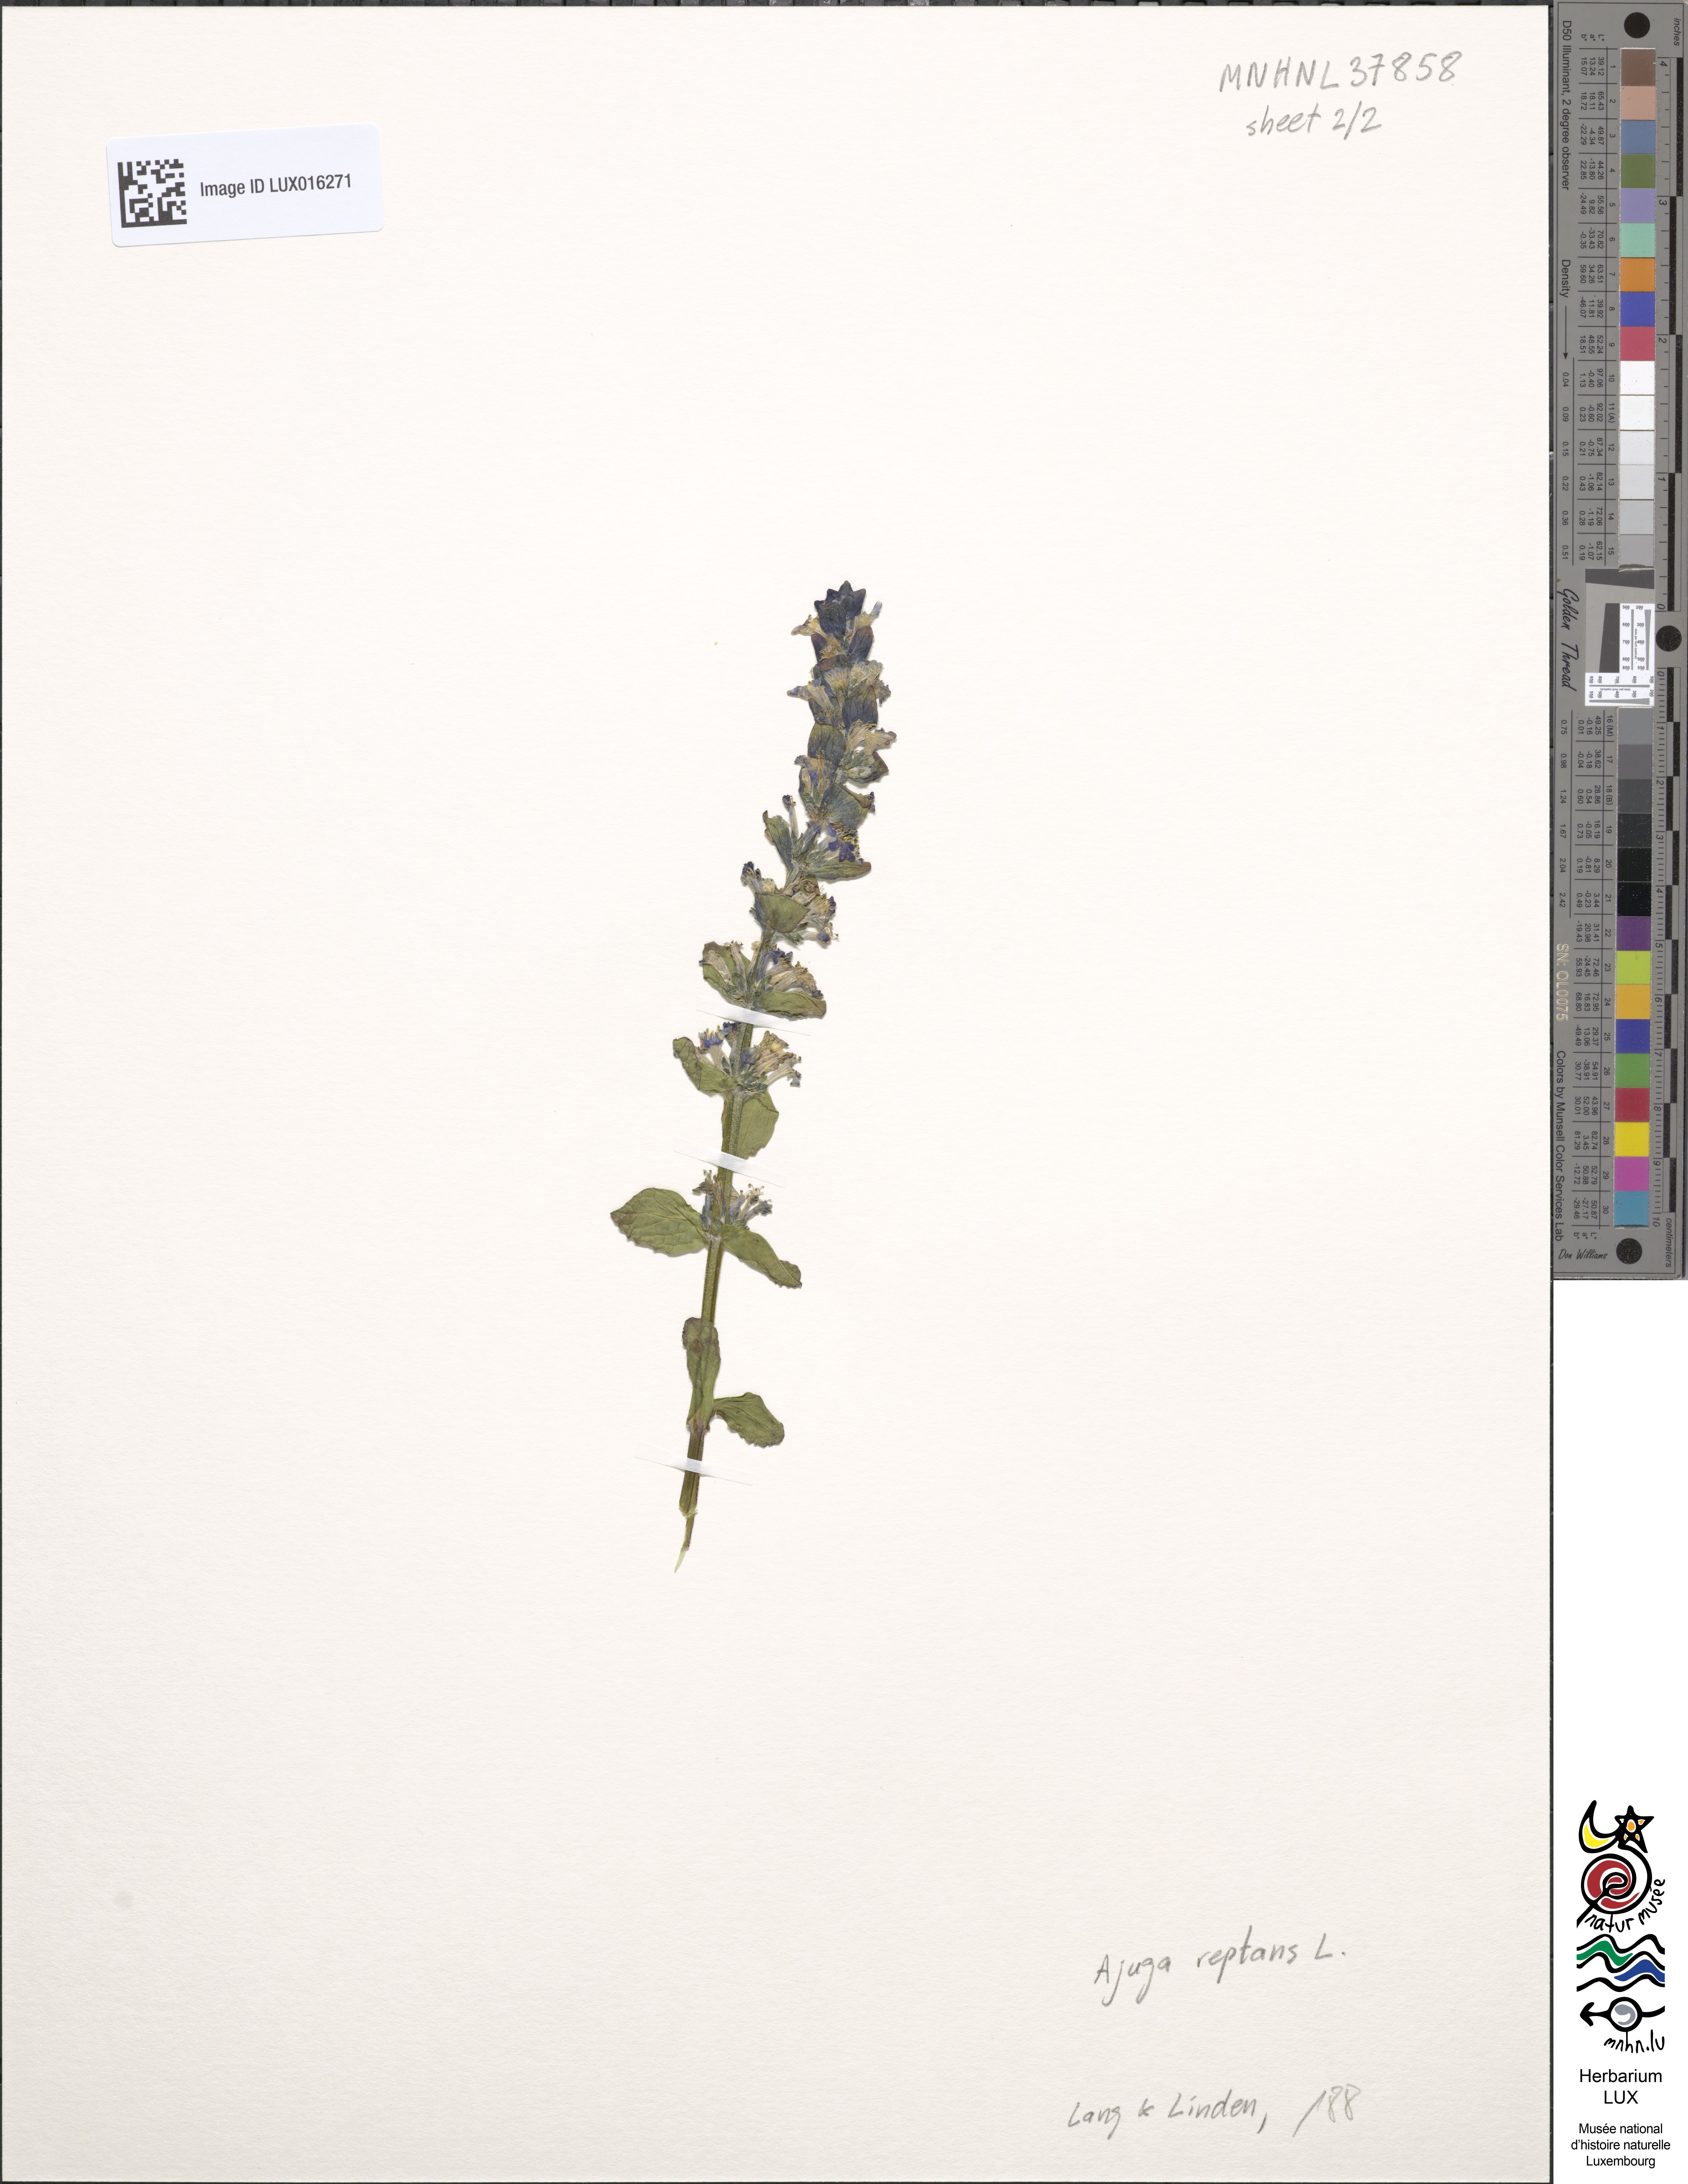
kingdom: Plantae
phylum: Tracheophyta
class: Magnoliopsida
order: Lamiales
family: Lamiaceae
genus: Ajuga
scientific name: Ajuga reptans
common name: Bugle
